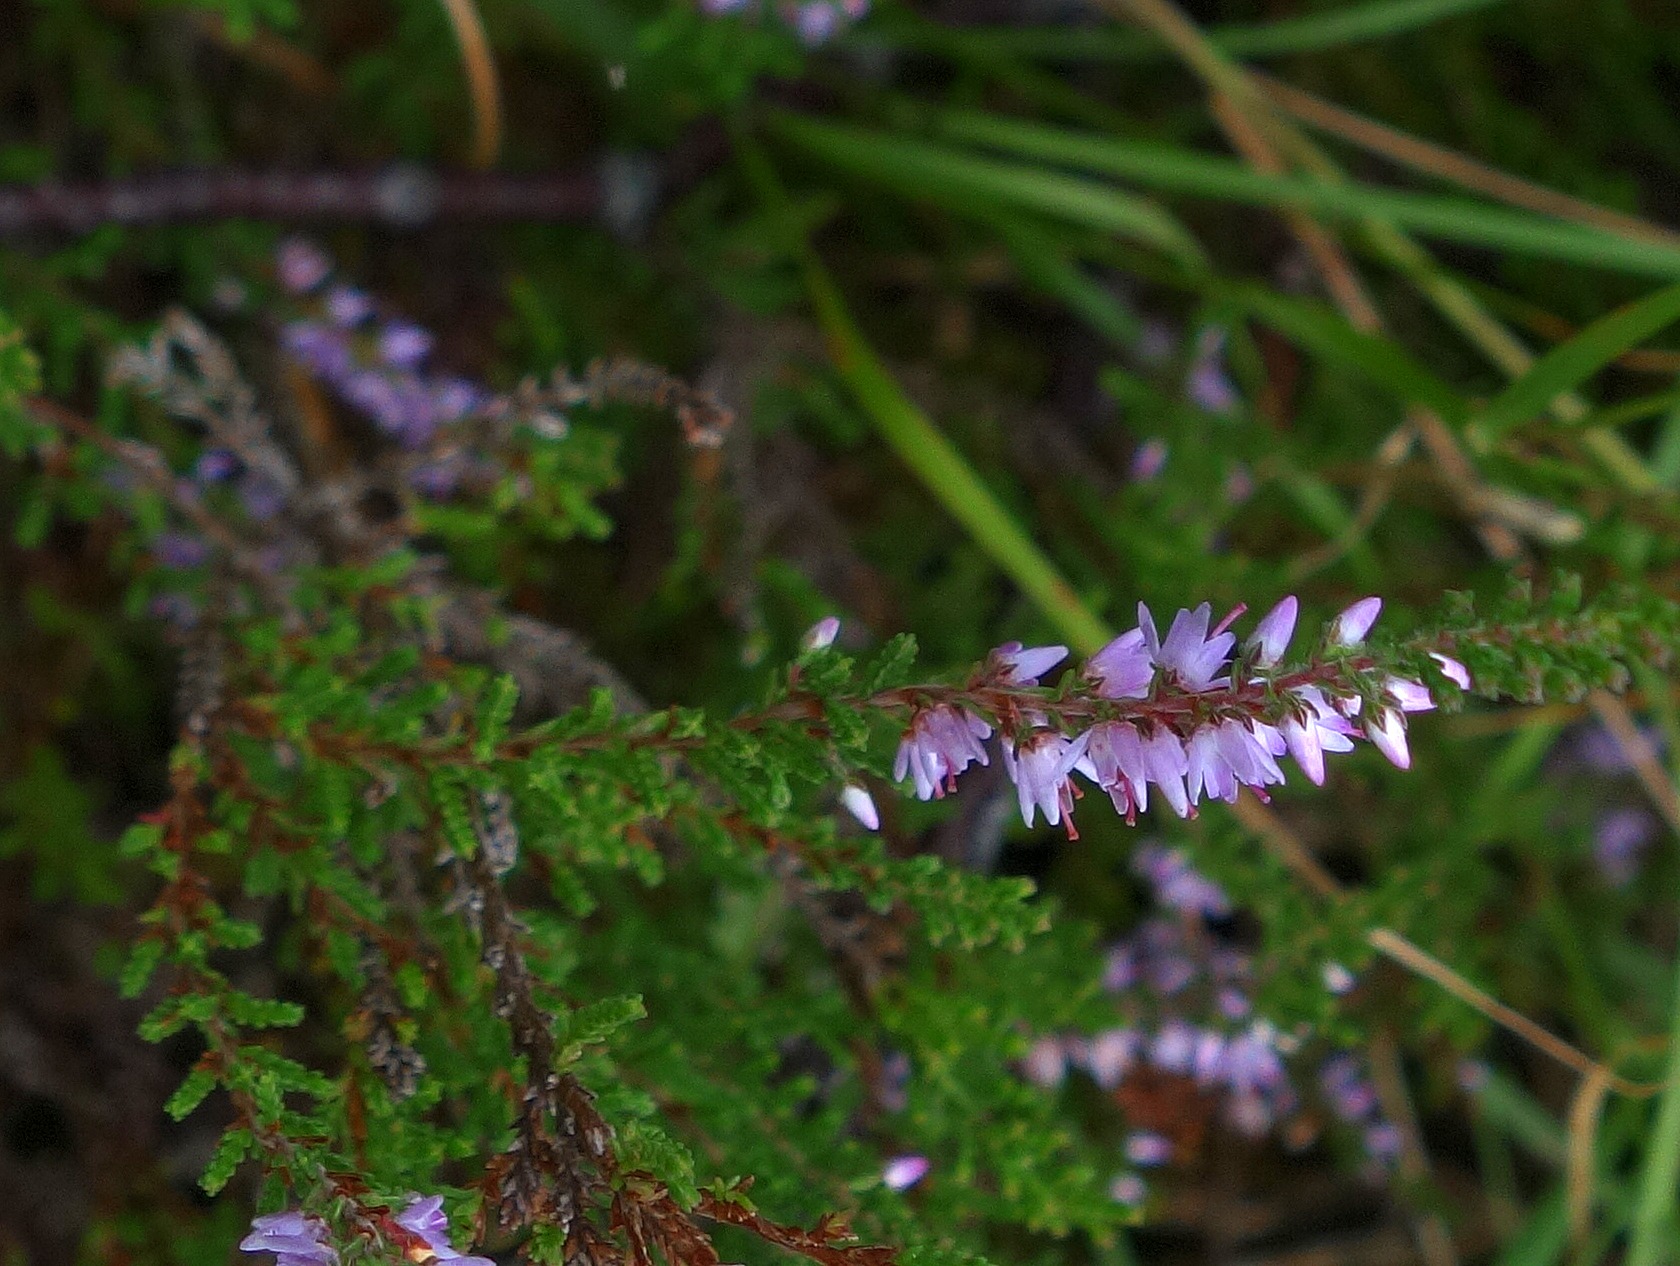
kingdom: Plantae
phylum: Tracheophyta
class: Magnoliopsida
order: Ericales
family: Ericaceae
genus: Calluna
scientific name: Calluna vulgaris
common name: Hedelyng
